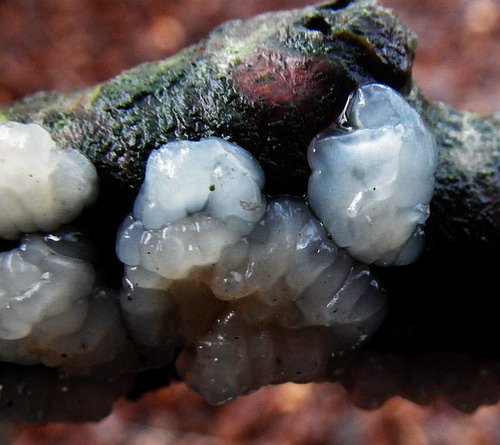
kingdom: Fungi
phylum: Basidiomycota
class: Agaricomycetes
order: Auriculariales
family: Auriculariaceae
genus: Exidia
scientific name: Exidia thuretiana
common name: hvidlig bævretop
